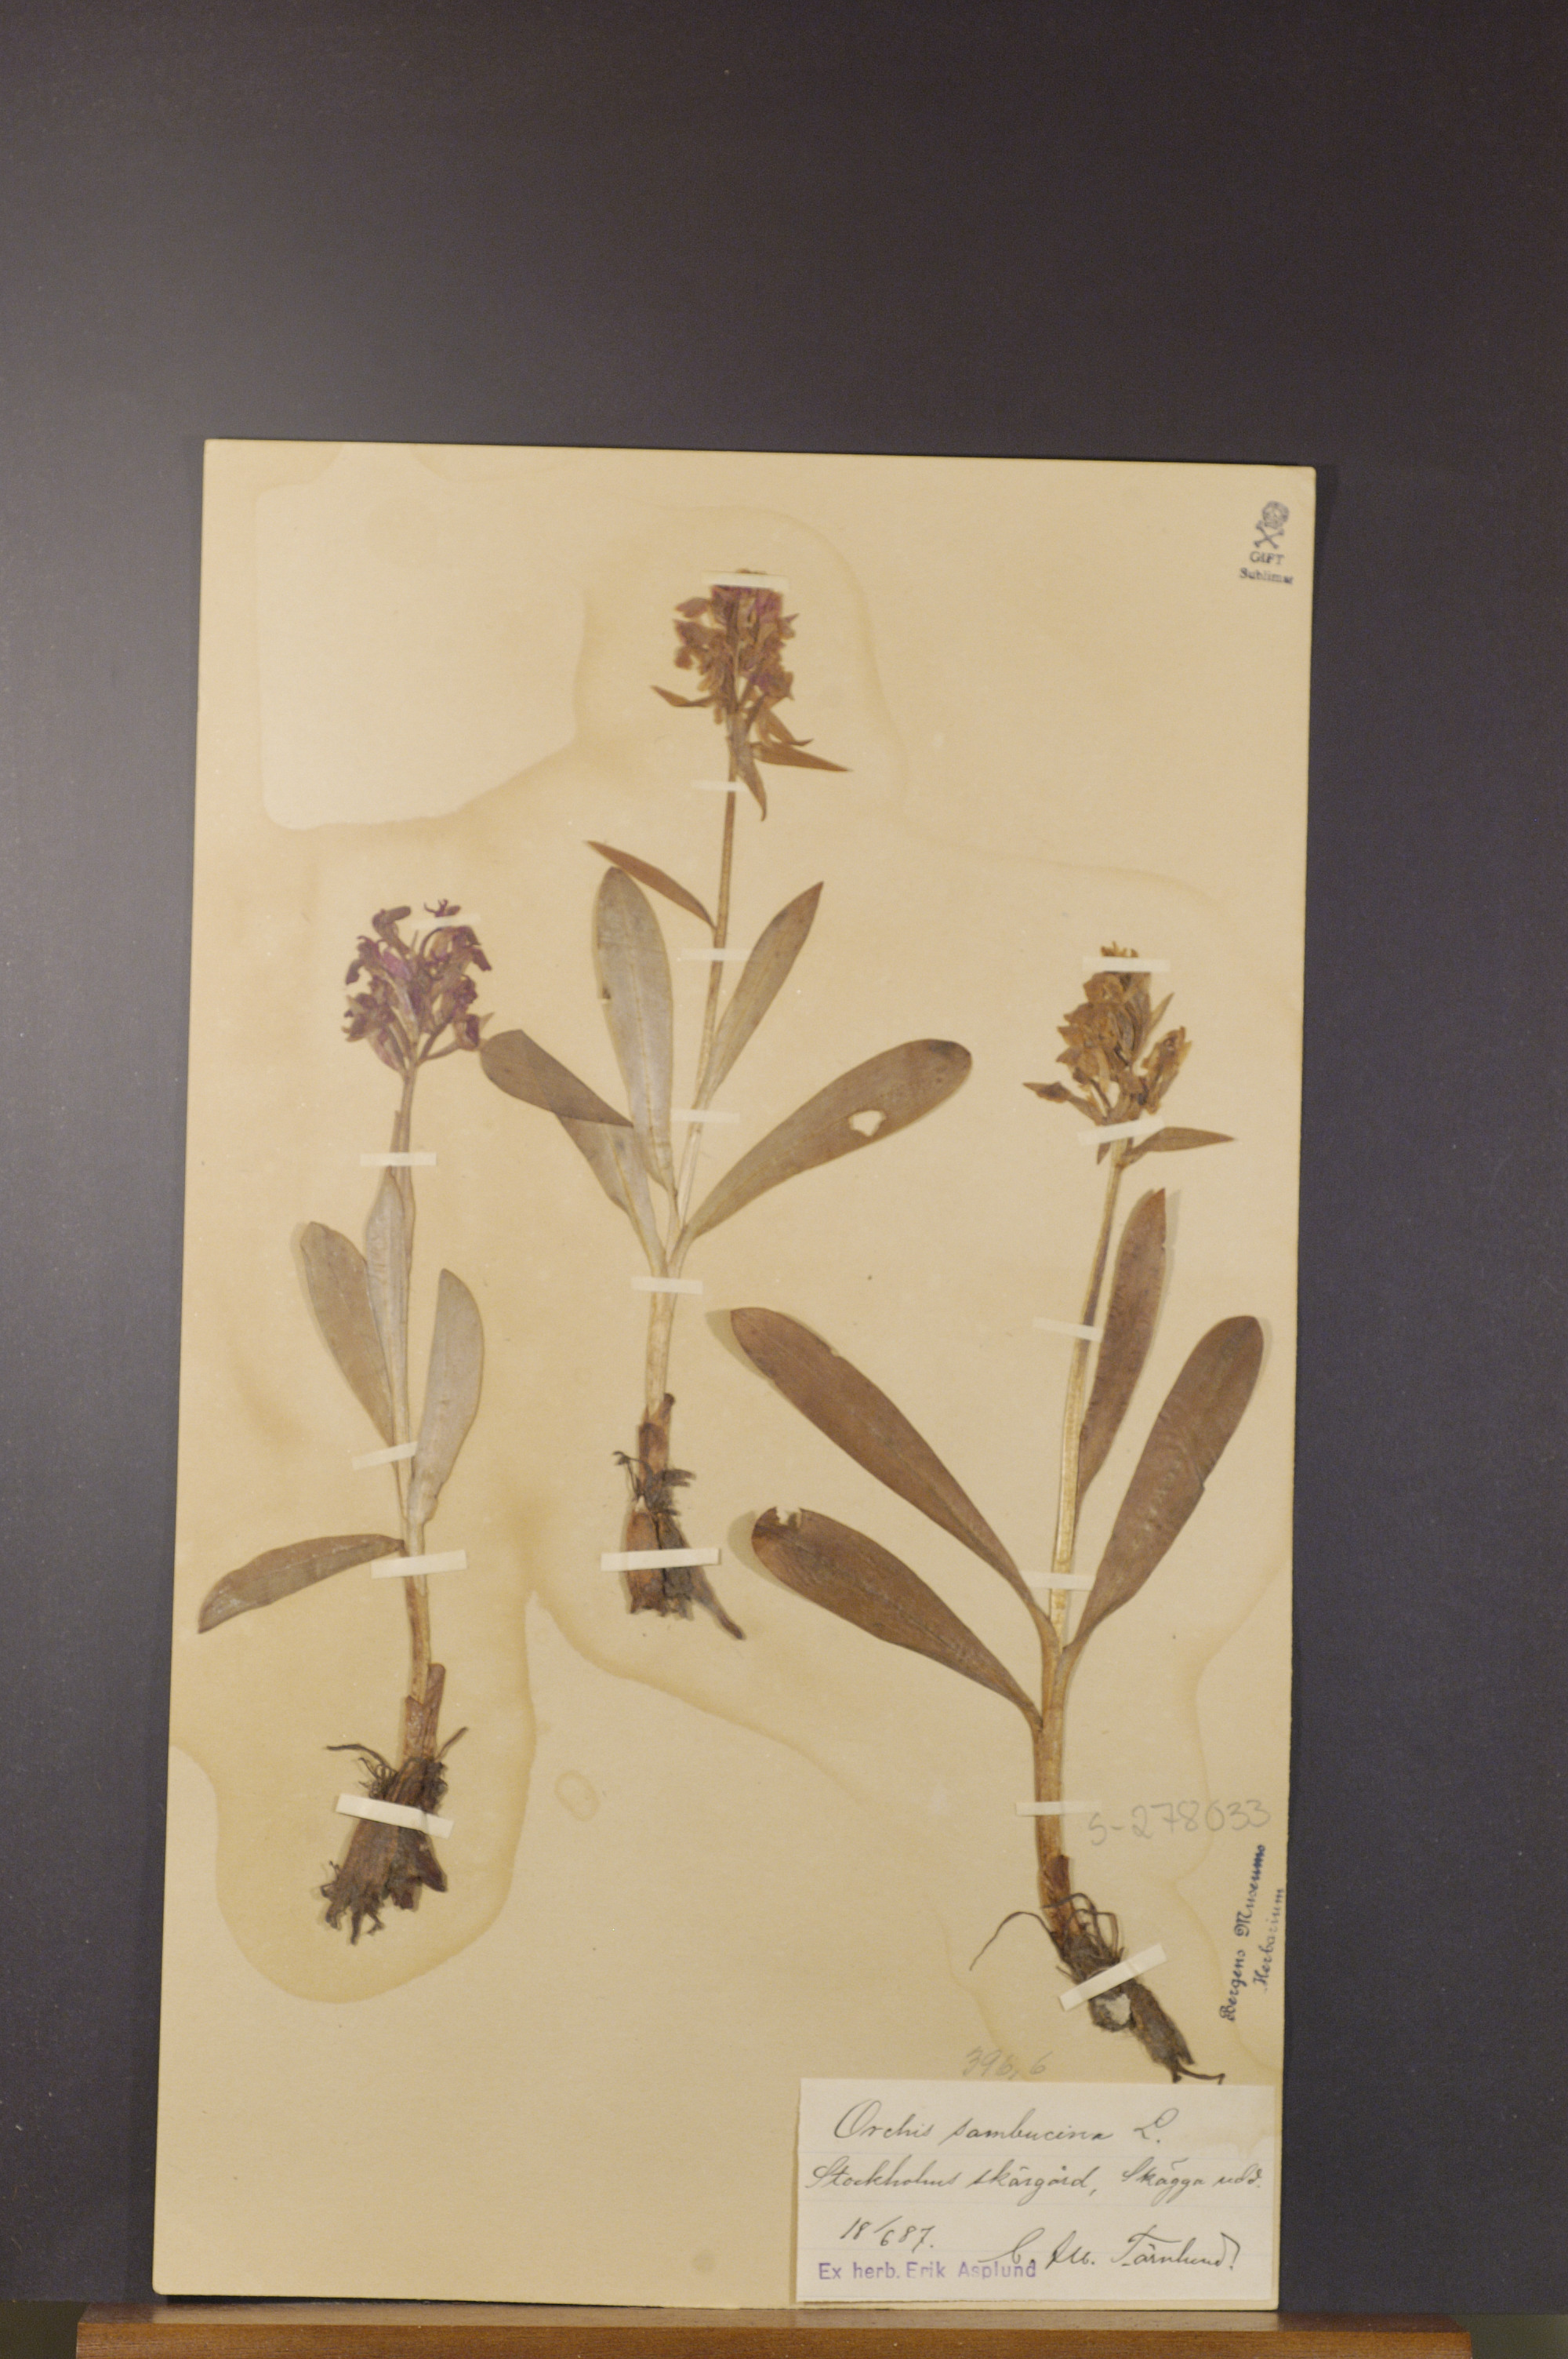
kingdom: Plantae
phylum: Tracheophyta
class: Liliopsida
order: Asparagales
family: Orchidaceae
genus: Dactylorhiza
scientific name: Dactylorhiza sambucina
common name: Elder-flowered orchid
